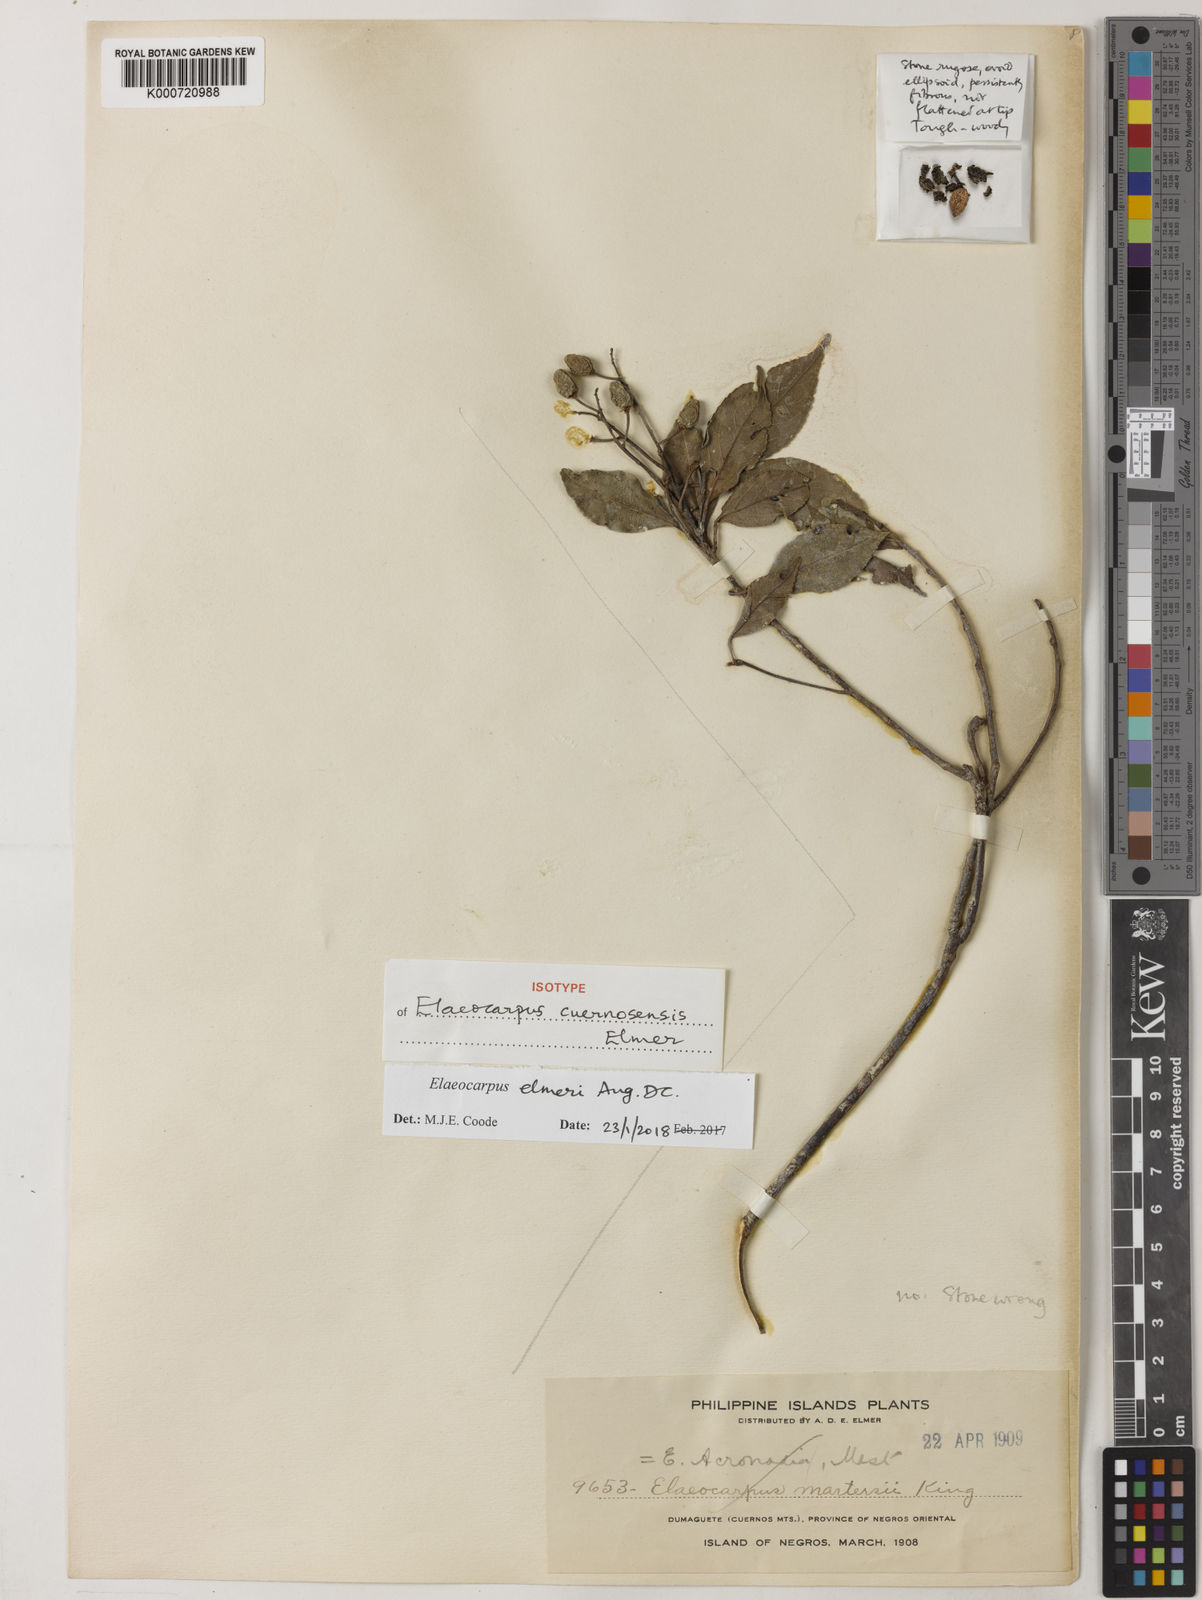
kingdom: Plantae
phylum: Tracheophyta
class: Magnoliopsida
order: Oxalidales
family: Elaeocarpaceae
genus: Elaeocarpus
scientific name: Elaeocarpus elmeri
